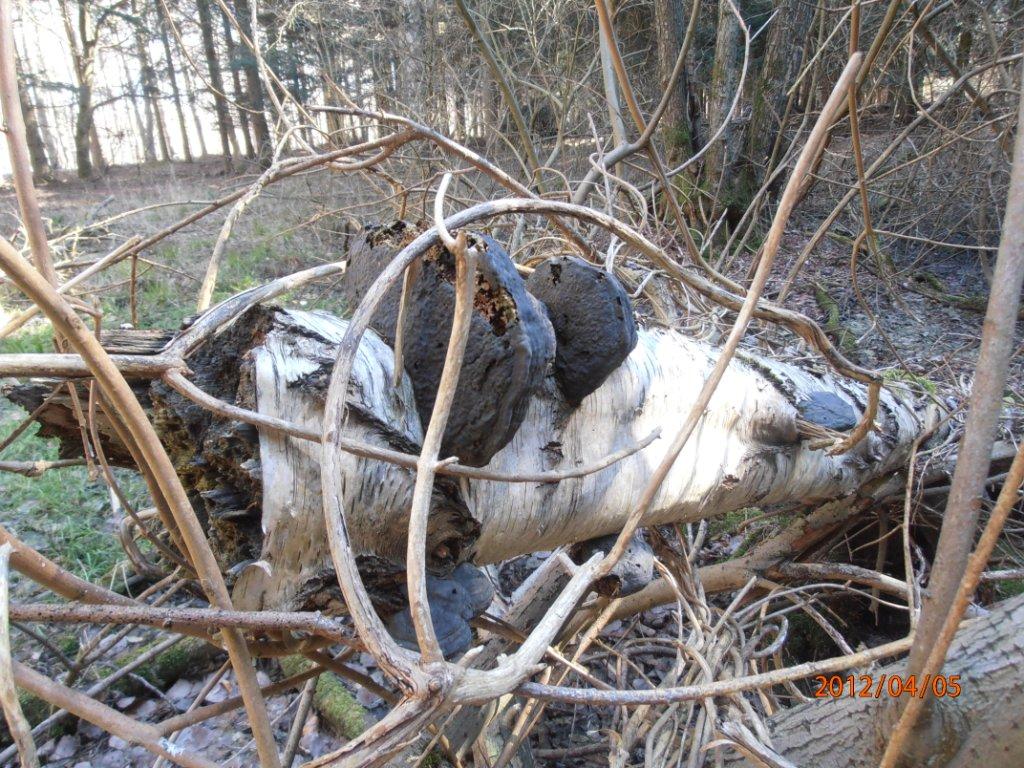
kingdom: Fungi
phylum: Basidiomycota
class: Agaricomycetes
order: Polyporales
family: Polyporaceae
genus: Fomes
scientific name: Fomes fomentarius
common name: tøndersvamp
